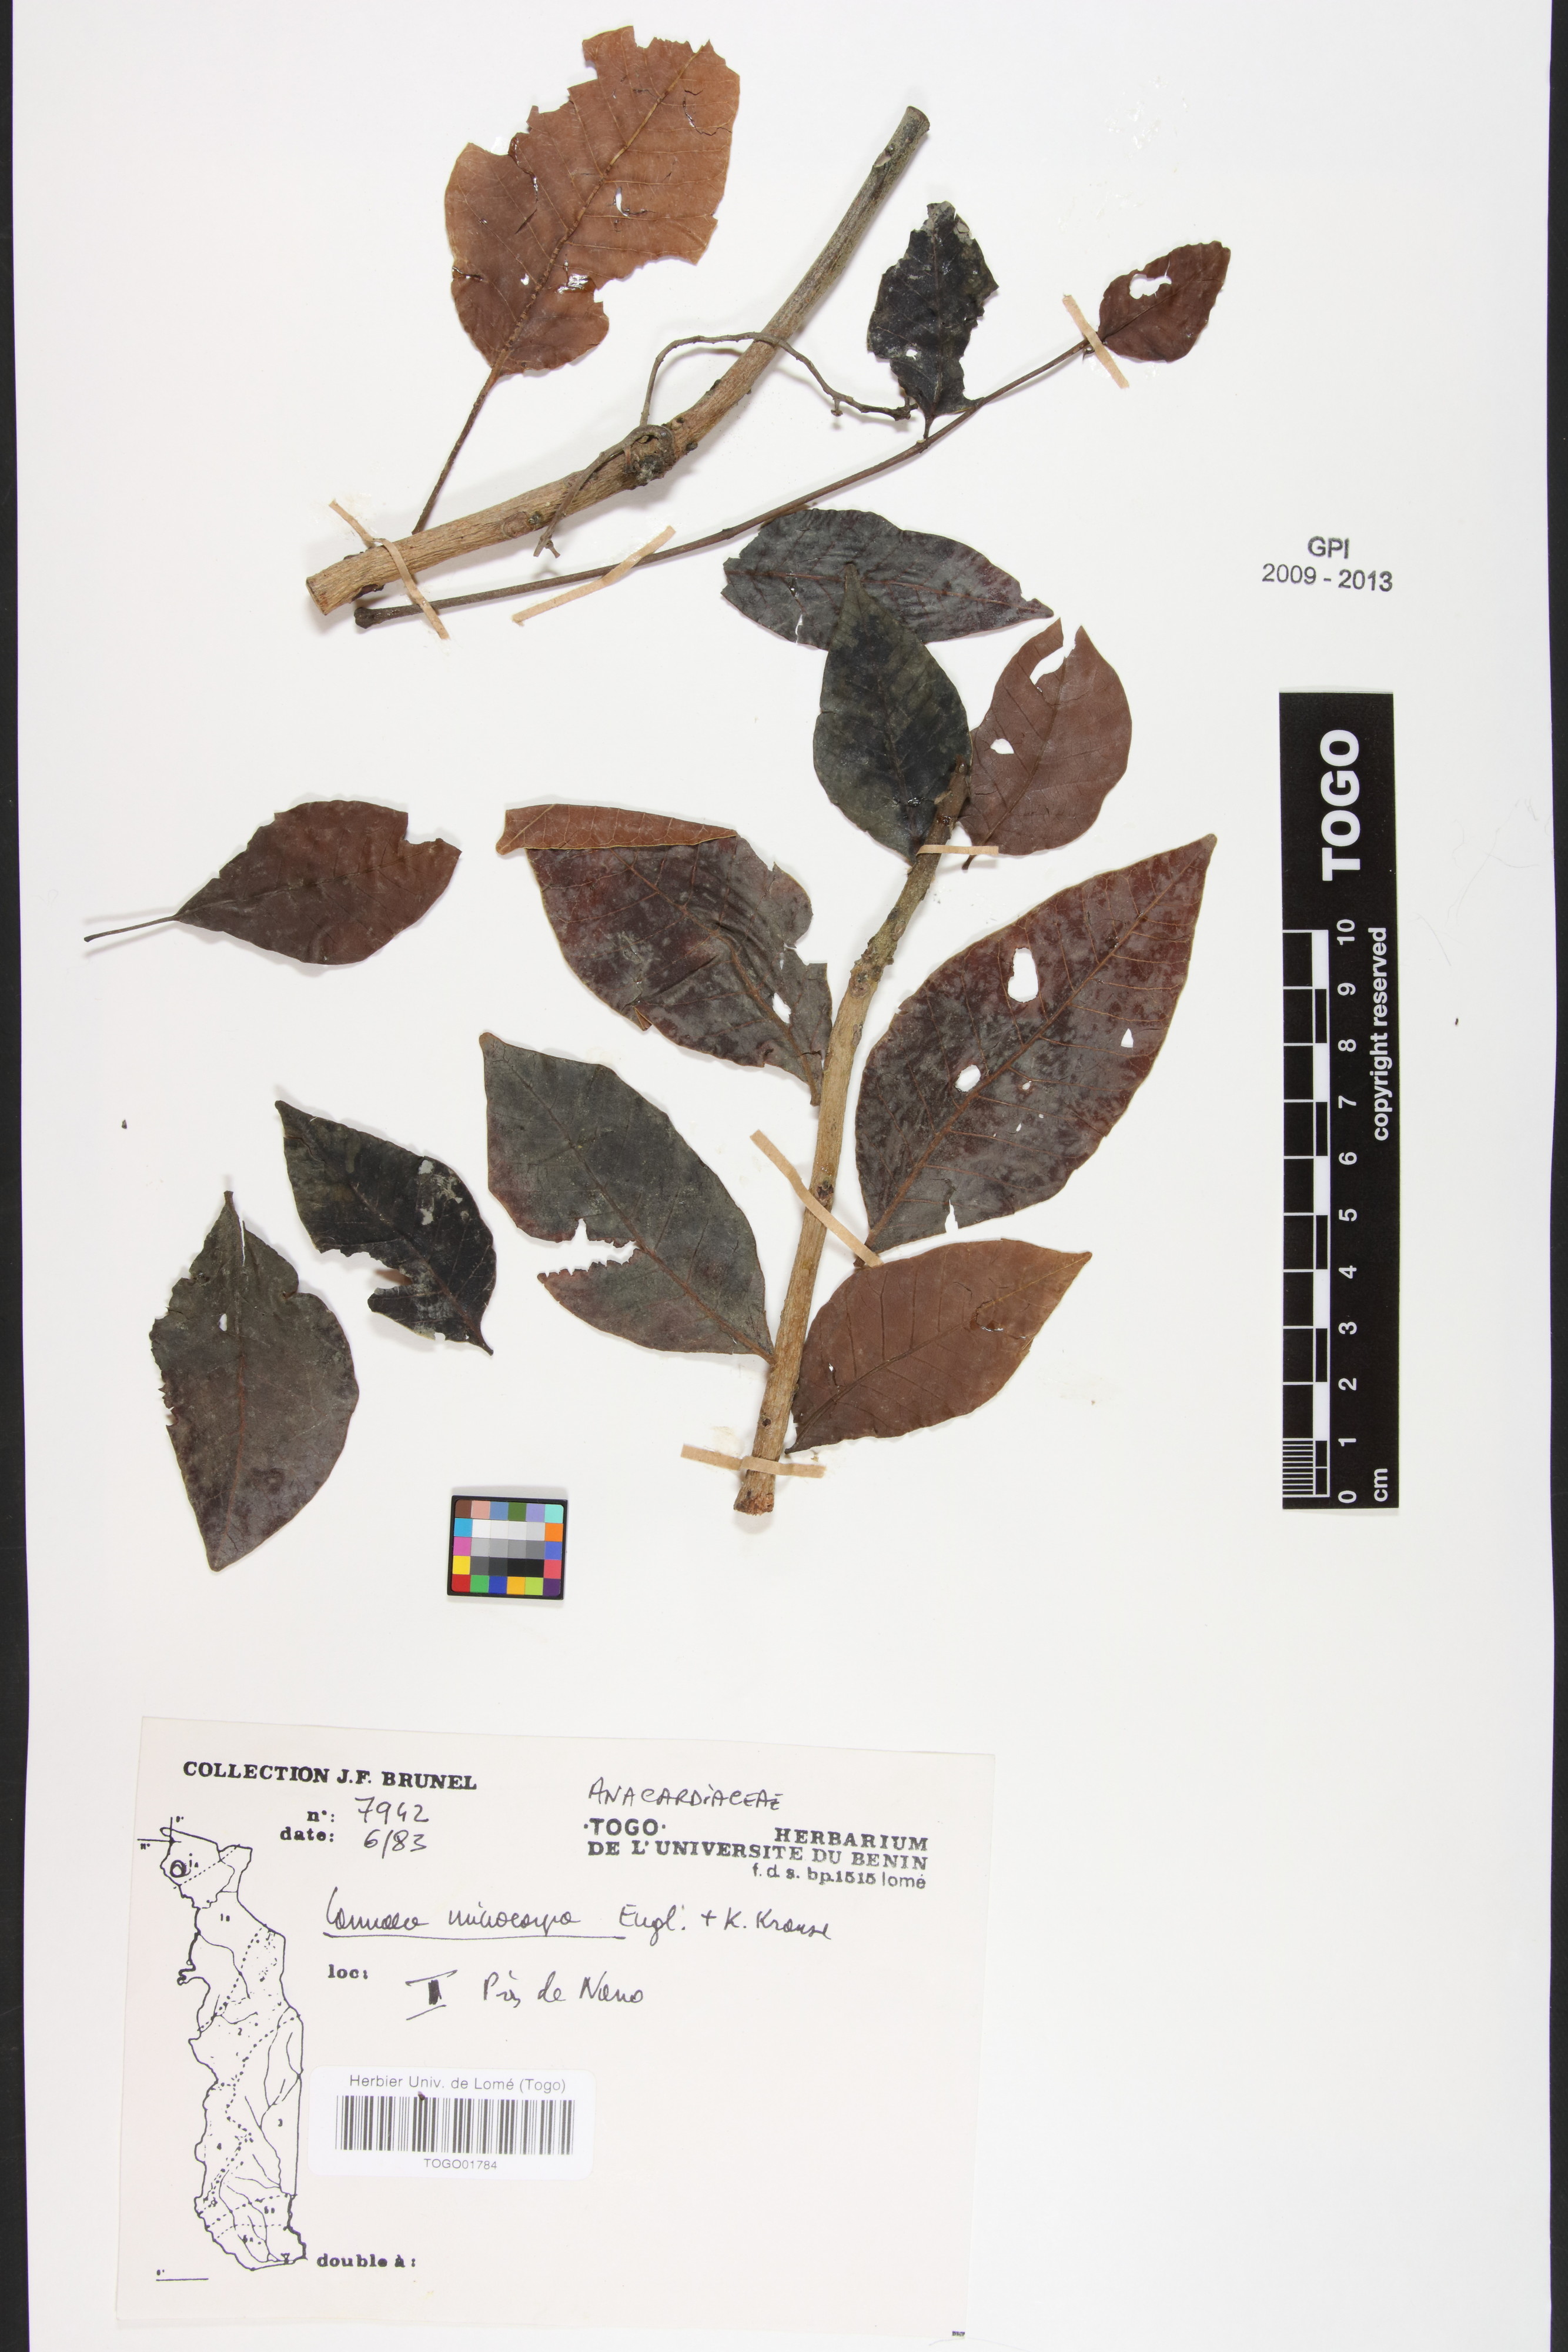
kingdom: Plantae
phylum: Tracheophyta
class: Magnoliopsida
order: Sapindales
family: Anacardiaceae
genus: Lannea
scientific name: Lannea microcarpa
